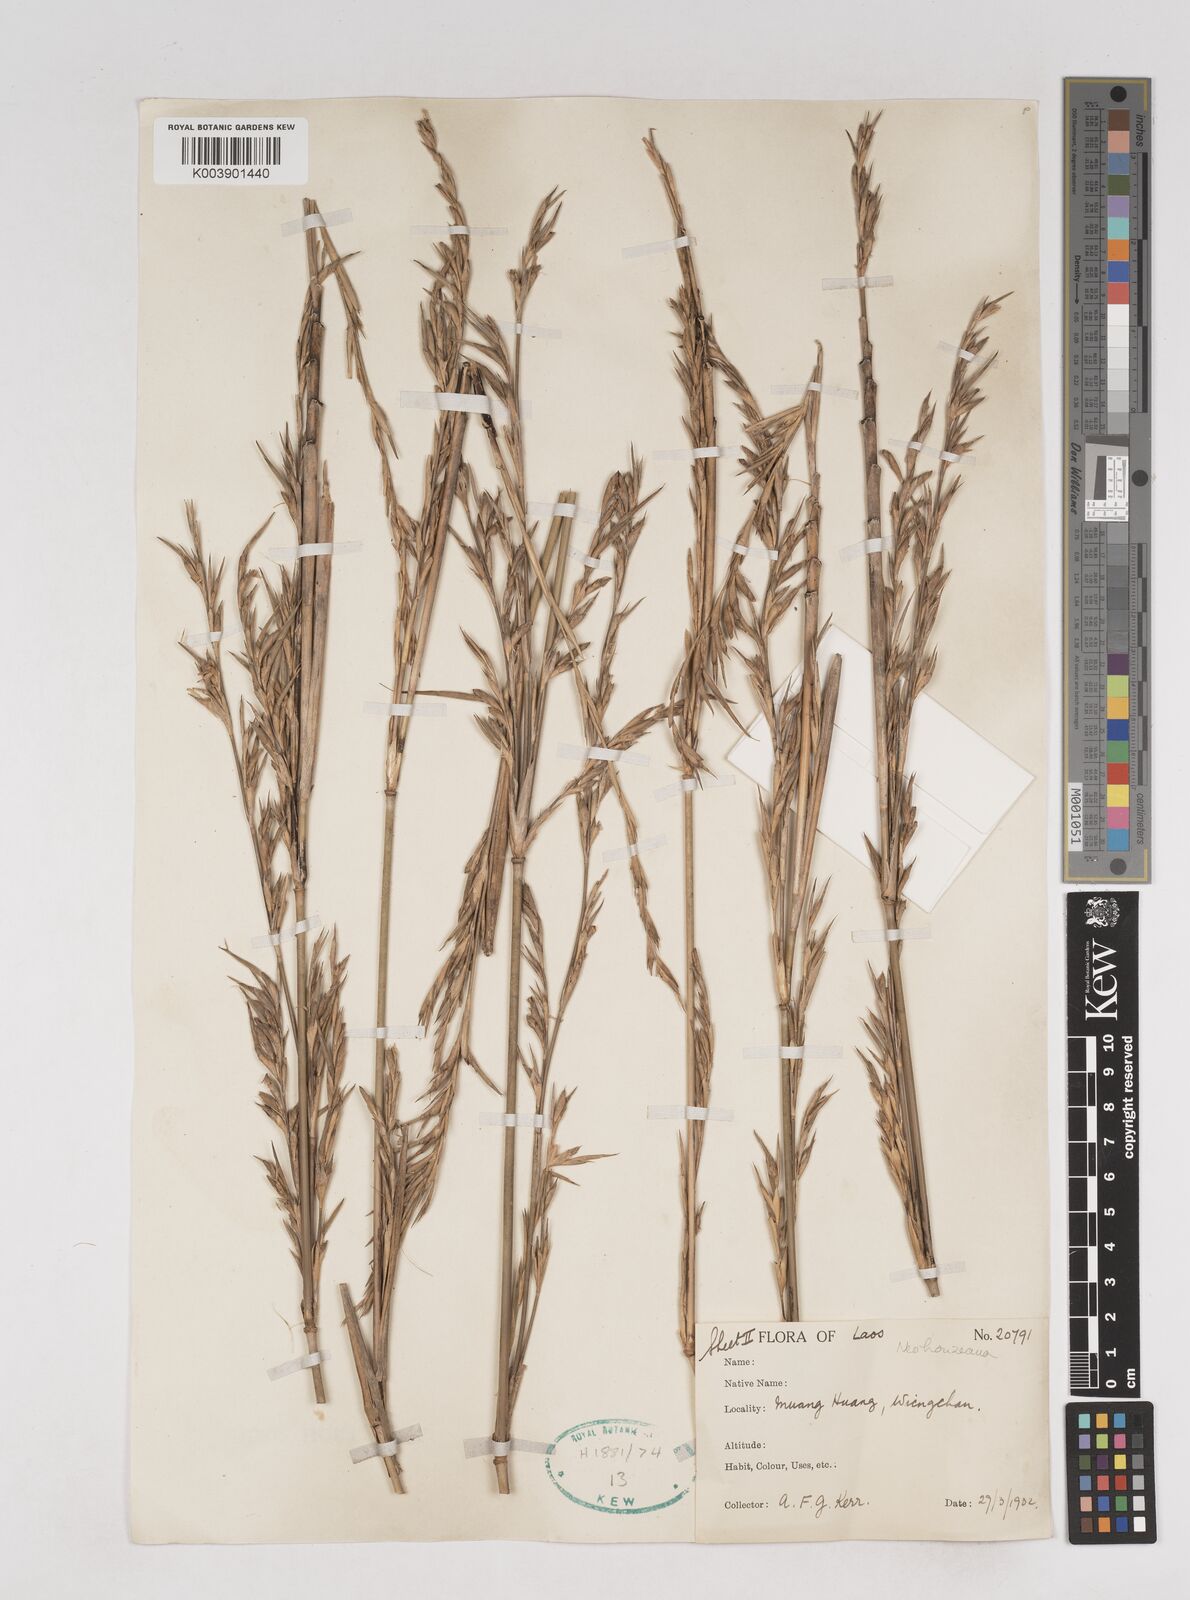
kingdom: Plantae
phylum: Tracheophyta
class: Liliopsida
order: Poales
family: Poaceae
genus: Schizostachyum
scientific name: Schizostachyum
